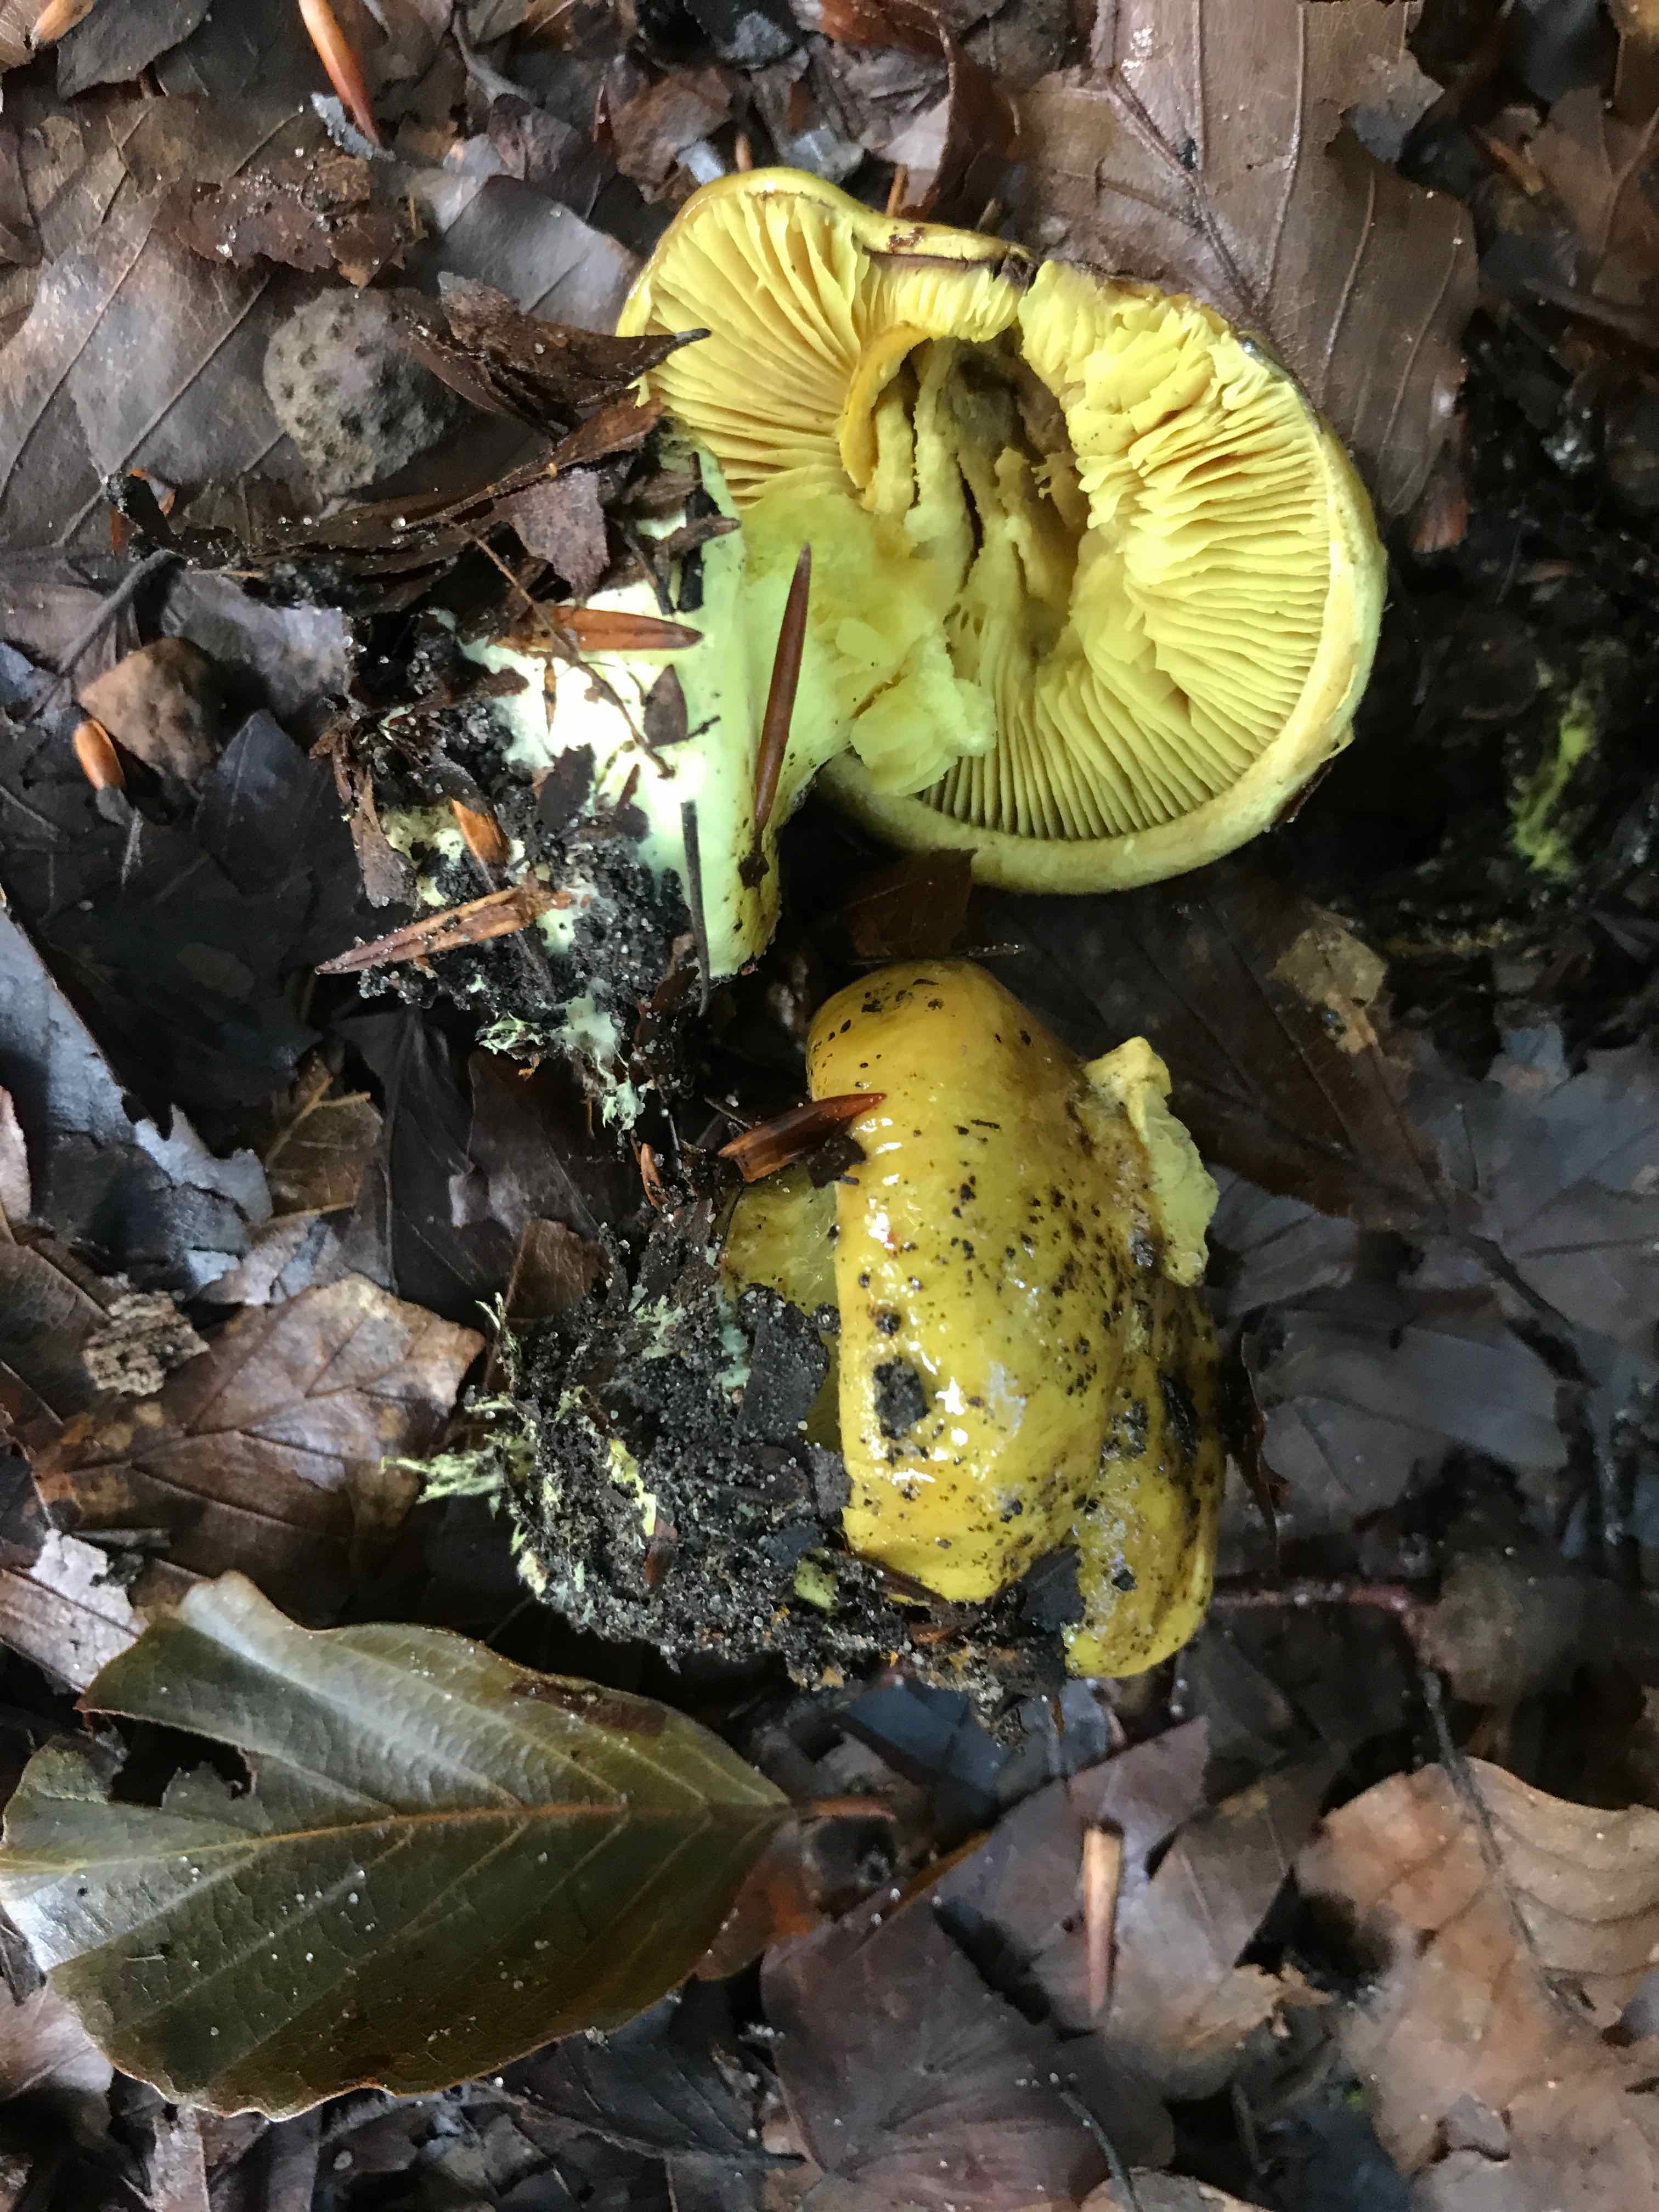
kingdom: Fungi
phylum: Basidiomycota
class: Agaricomycetes
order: Agaricales
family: Cortinariaceae
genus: Calonarius
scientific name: Calonarius citrinus
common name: citrongul slørhat
